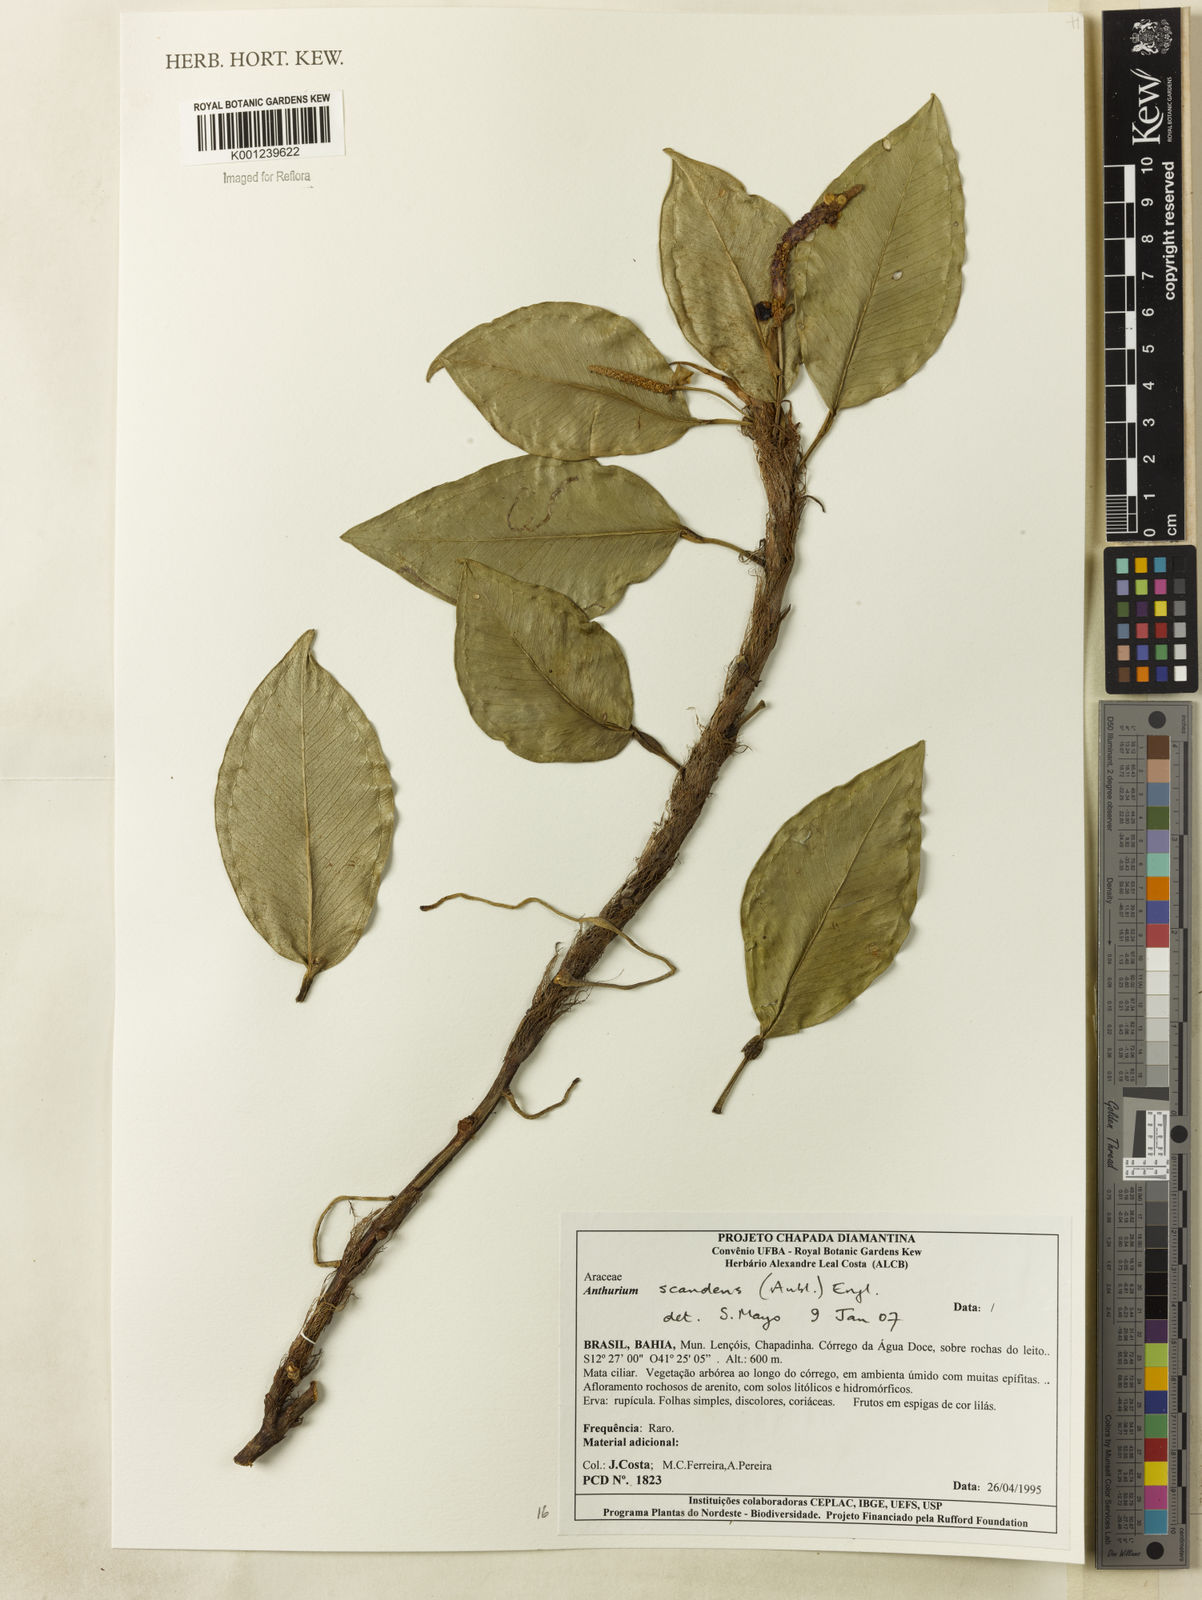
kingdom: Plantae
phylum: Tracheophyta
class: Liliopsida
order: Alismatales
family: Araceae
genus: Anthurium
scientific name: Anthurium scandens
